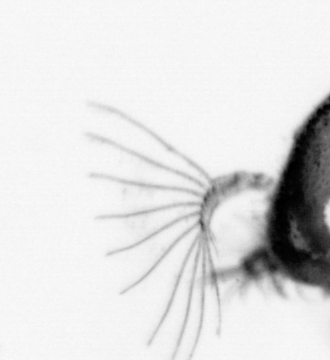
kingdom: Animalia
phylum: Arthropoda
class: Copepoda
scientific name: Copepoda
